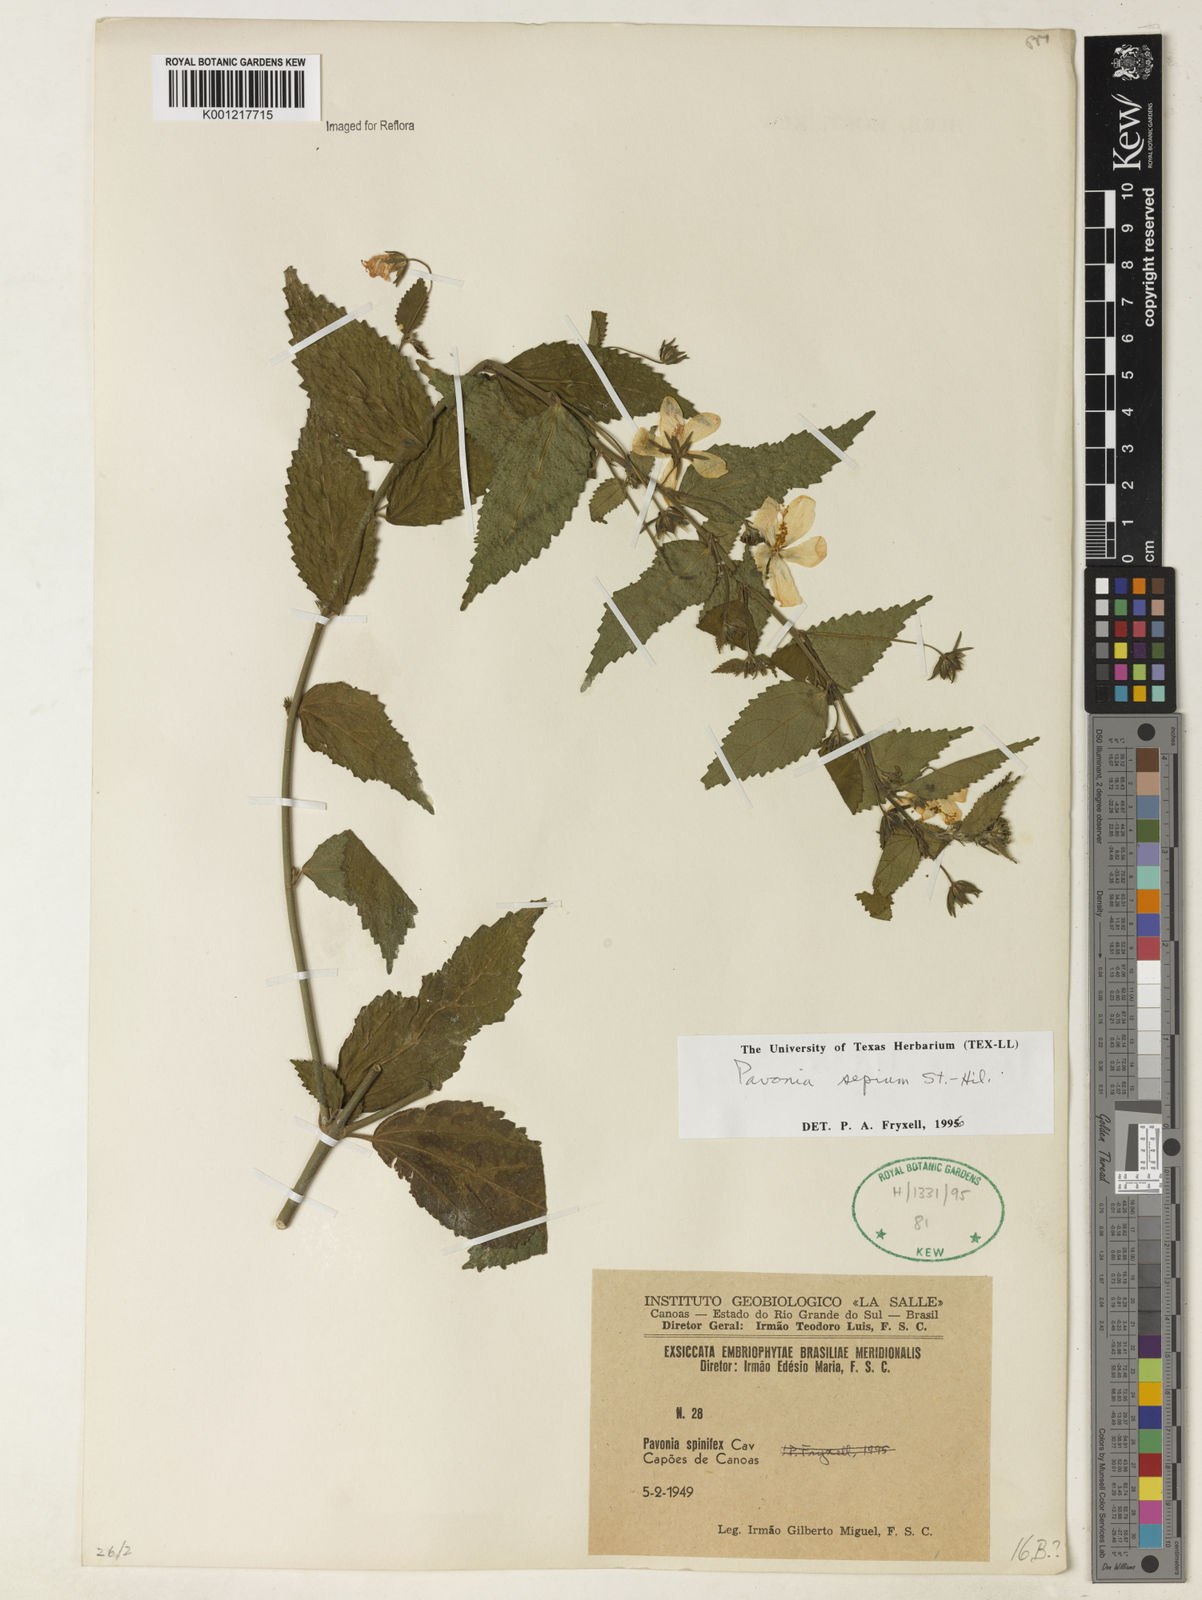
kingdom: Plantae
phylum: Tracheophyta
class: Magnoliopsida
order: Malvales
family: Malvaceae
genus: Pavonia
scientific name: Pavonia sepium
